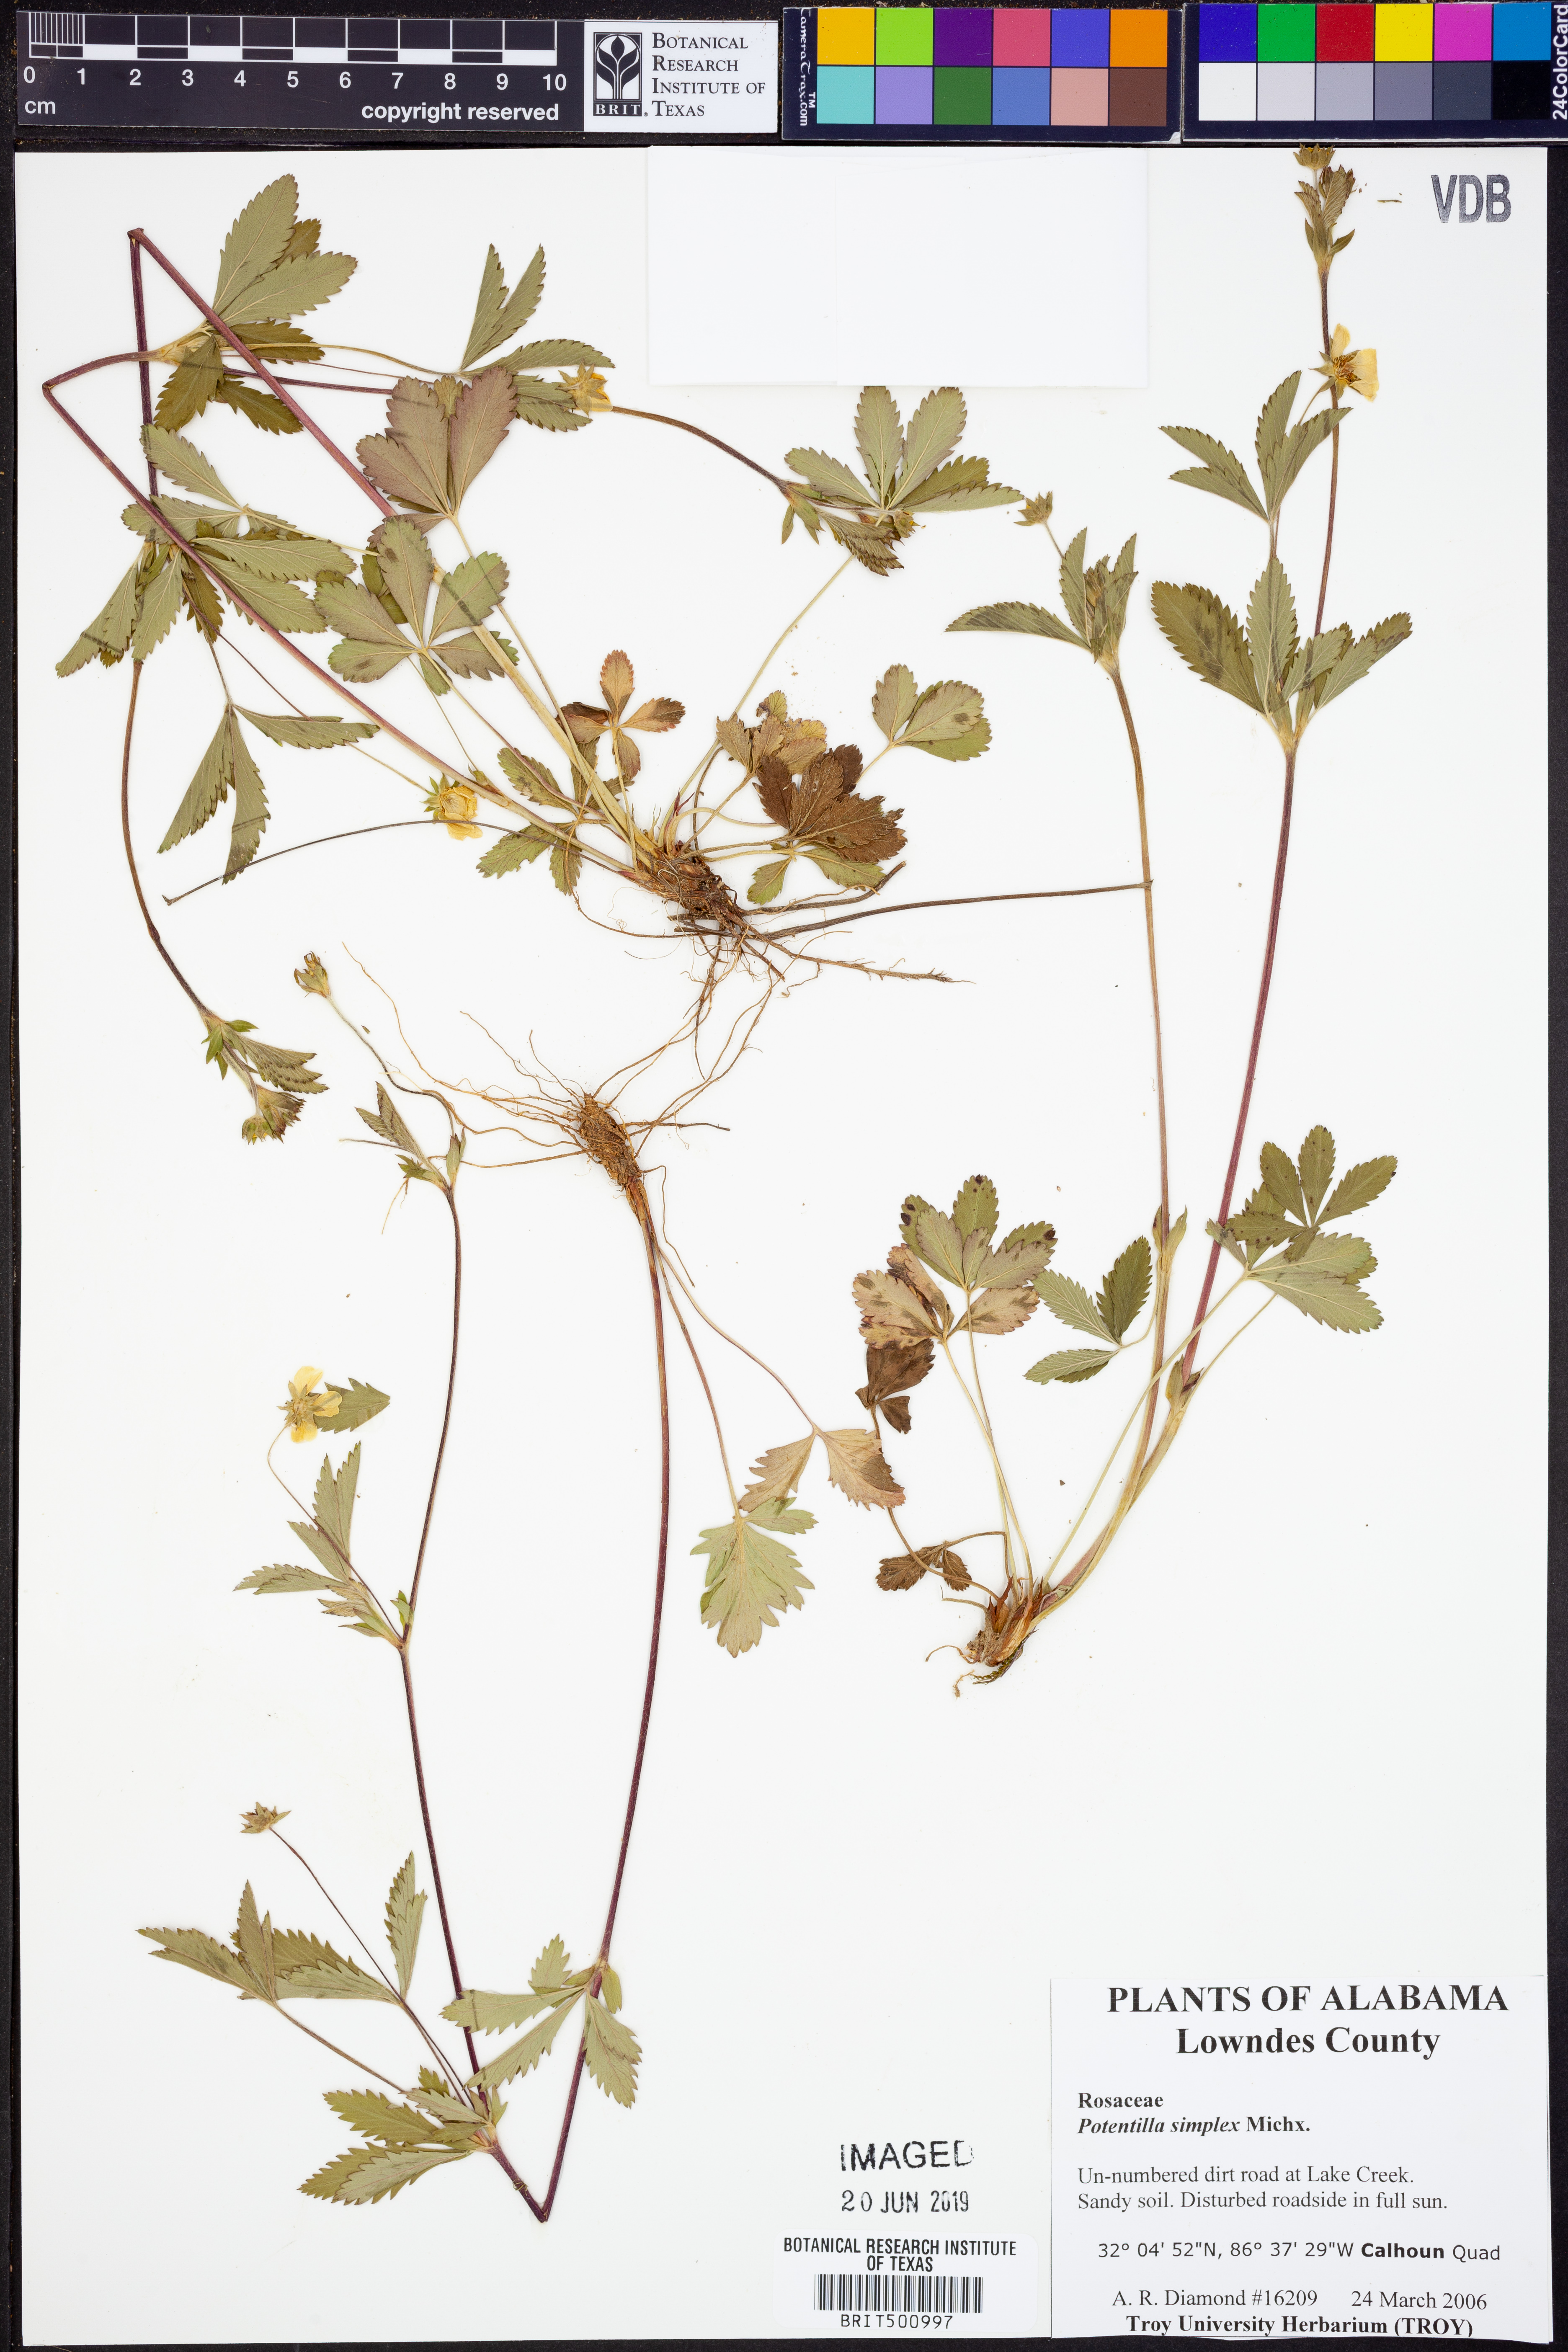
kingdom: Plantae
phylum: Tracheophyta
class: Magnoliopsida
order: Rosales
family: Rosaceae
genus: Potentilla
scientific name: Potentilla simplex
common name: Old field cinquefoil
